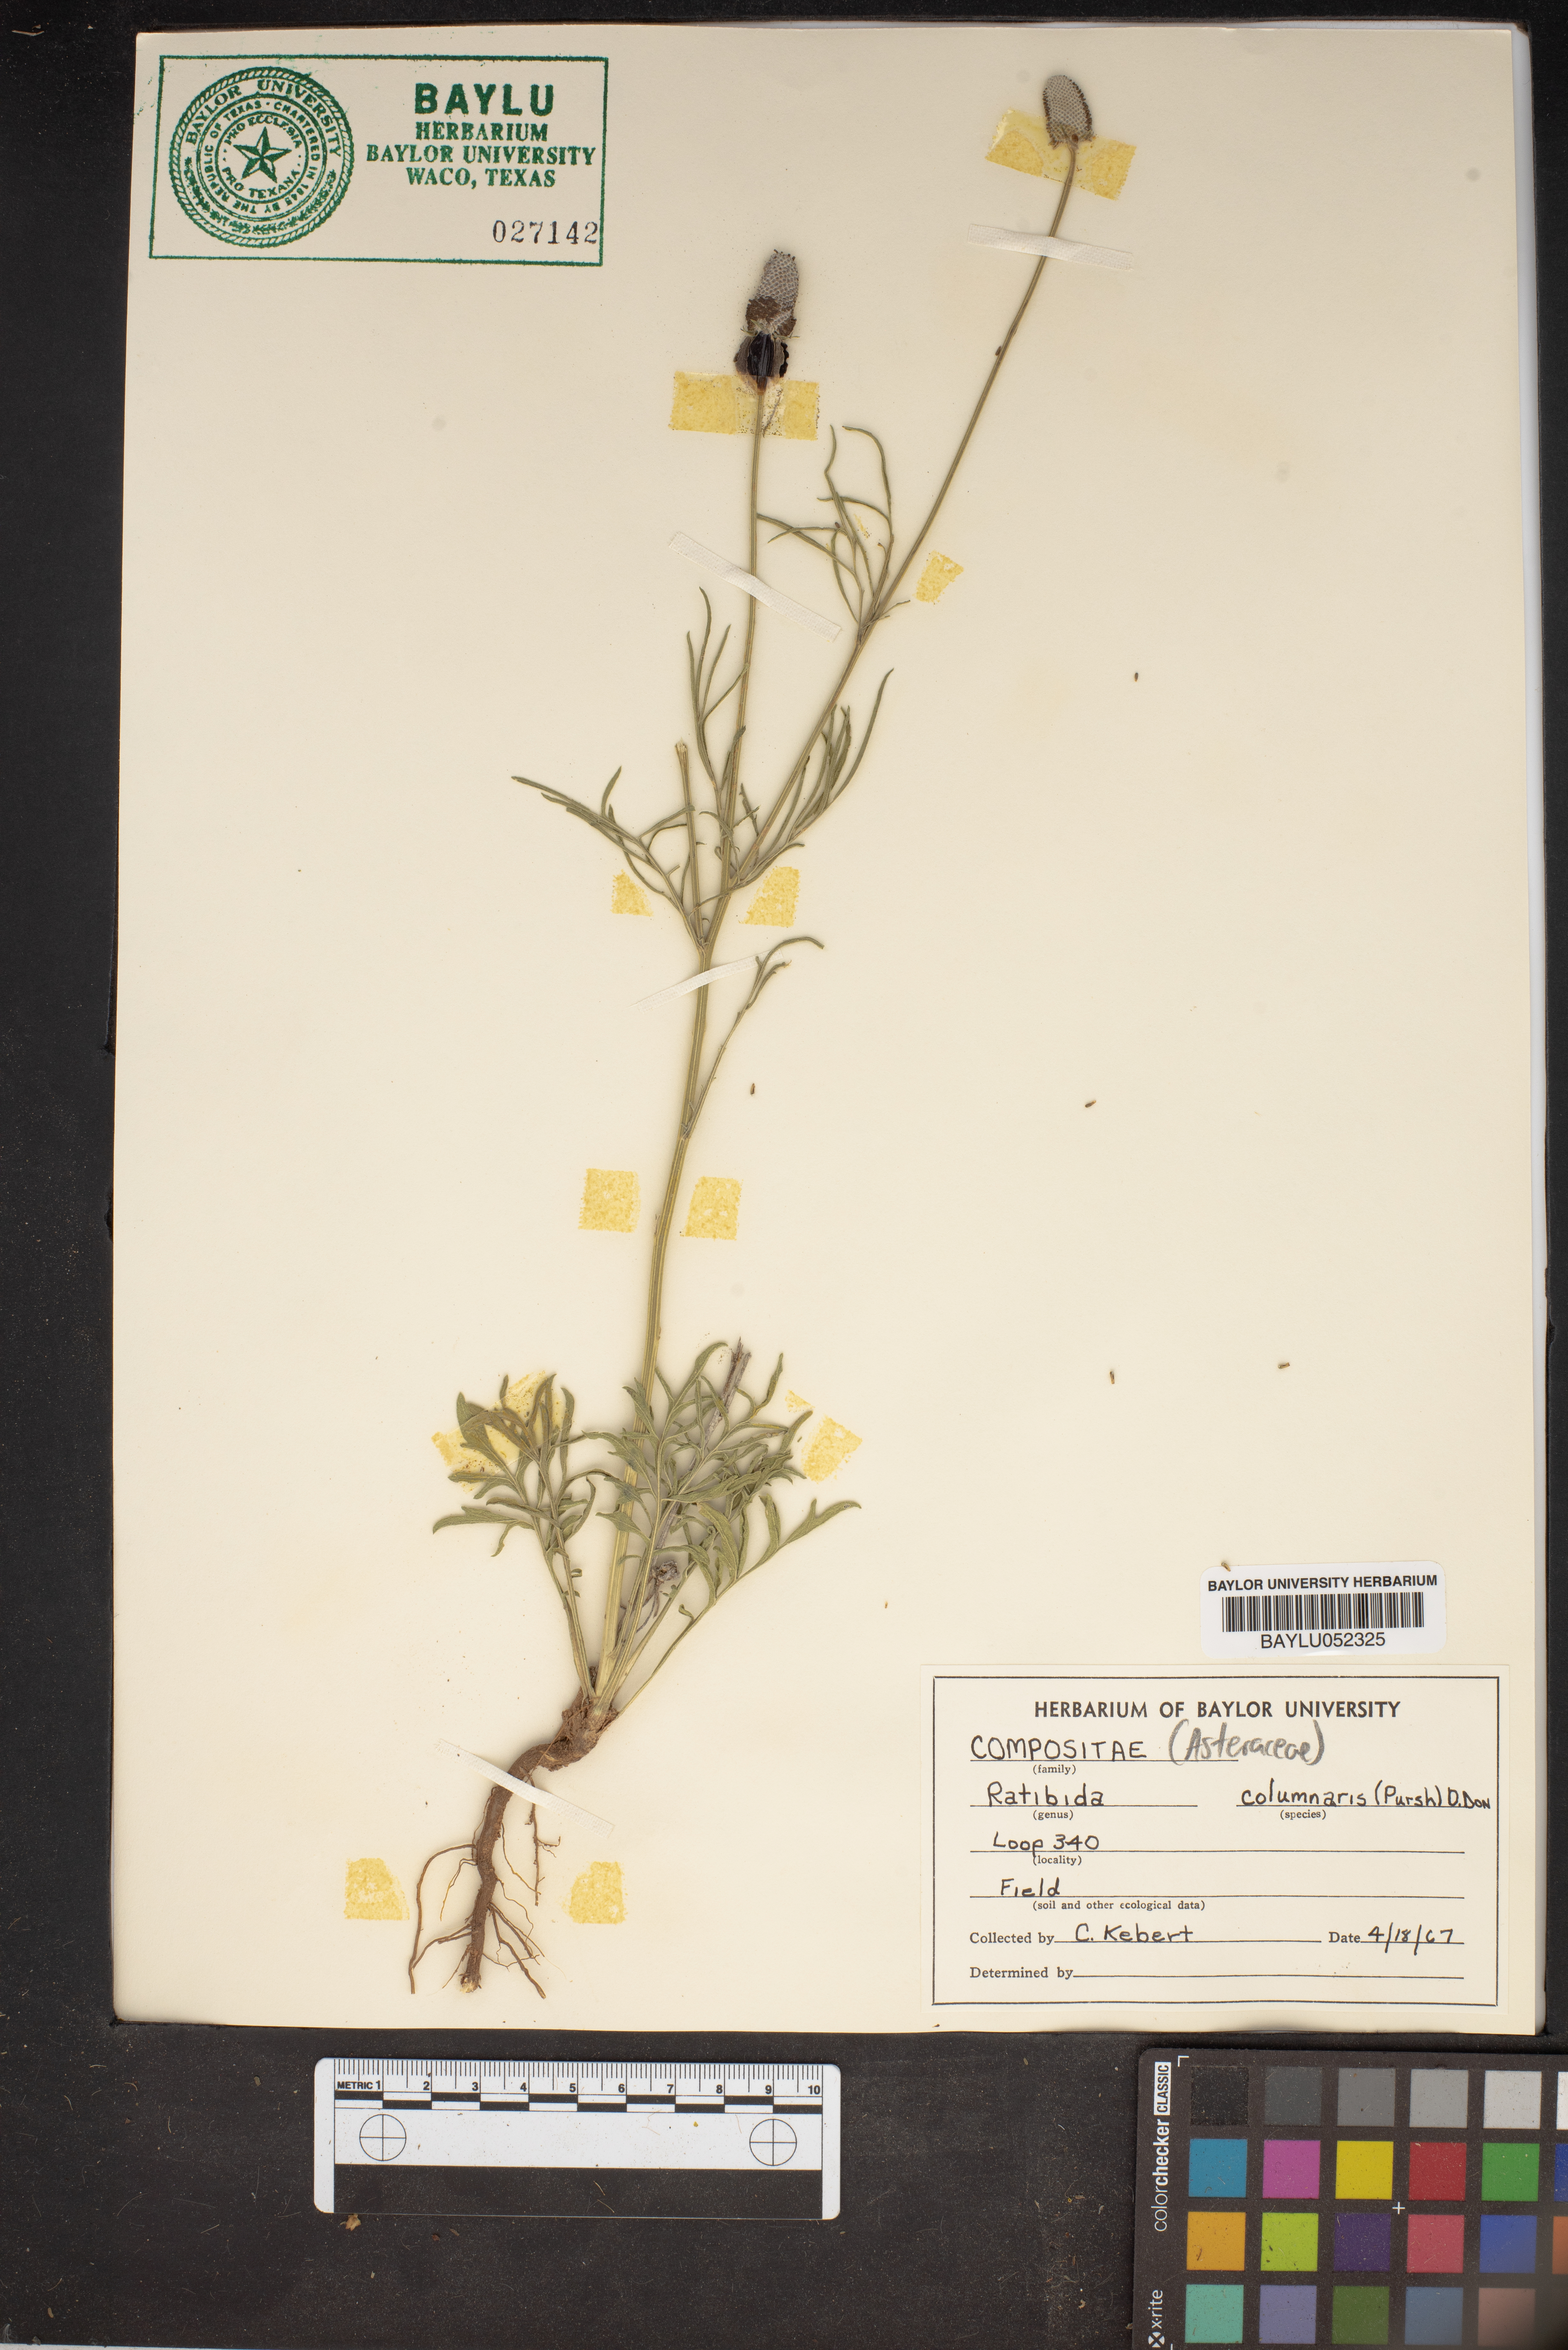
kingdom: Plantae
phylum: Tracheophyta
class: Magnoliopsida
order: Asterales
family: Asteraceae
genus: Ratibida
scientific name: Ratibida columnifera
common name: Prairie coneflower
